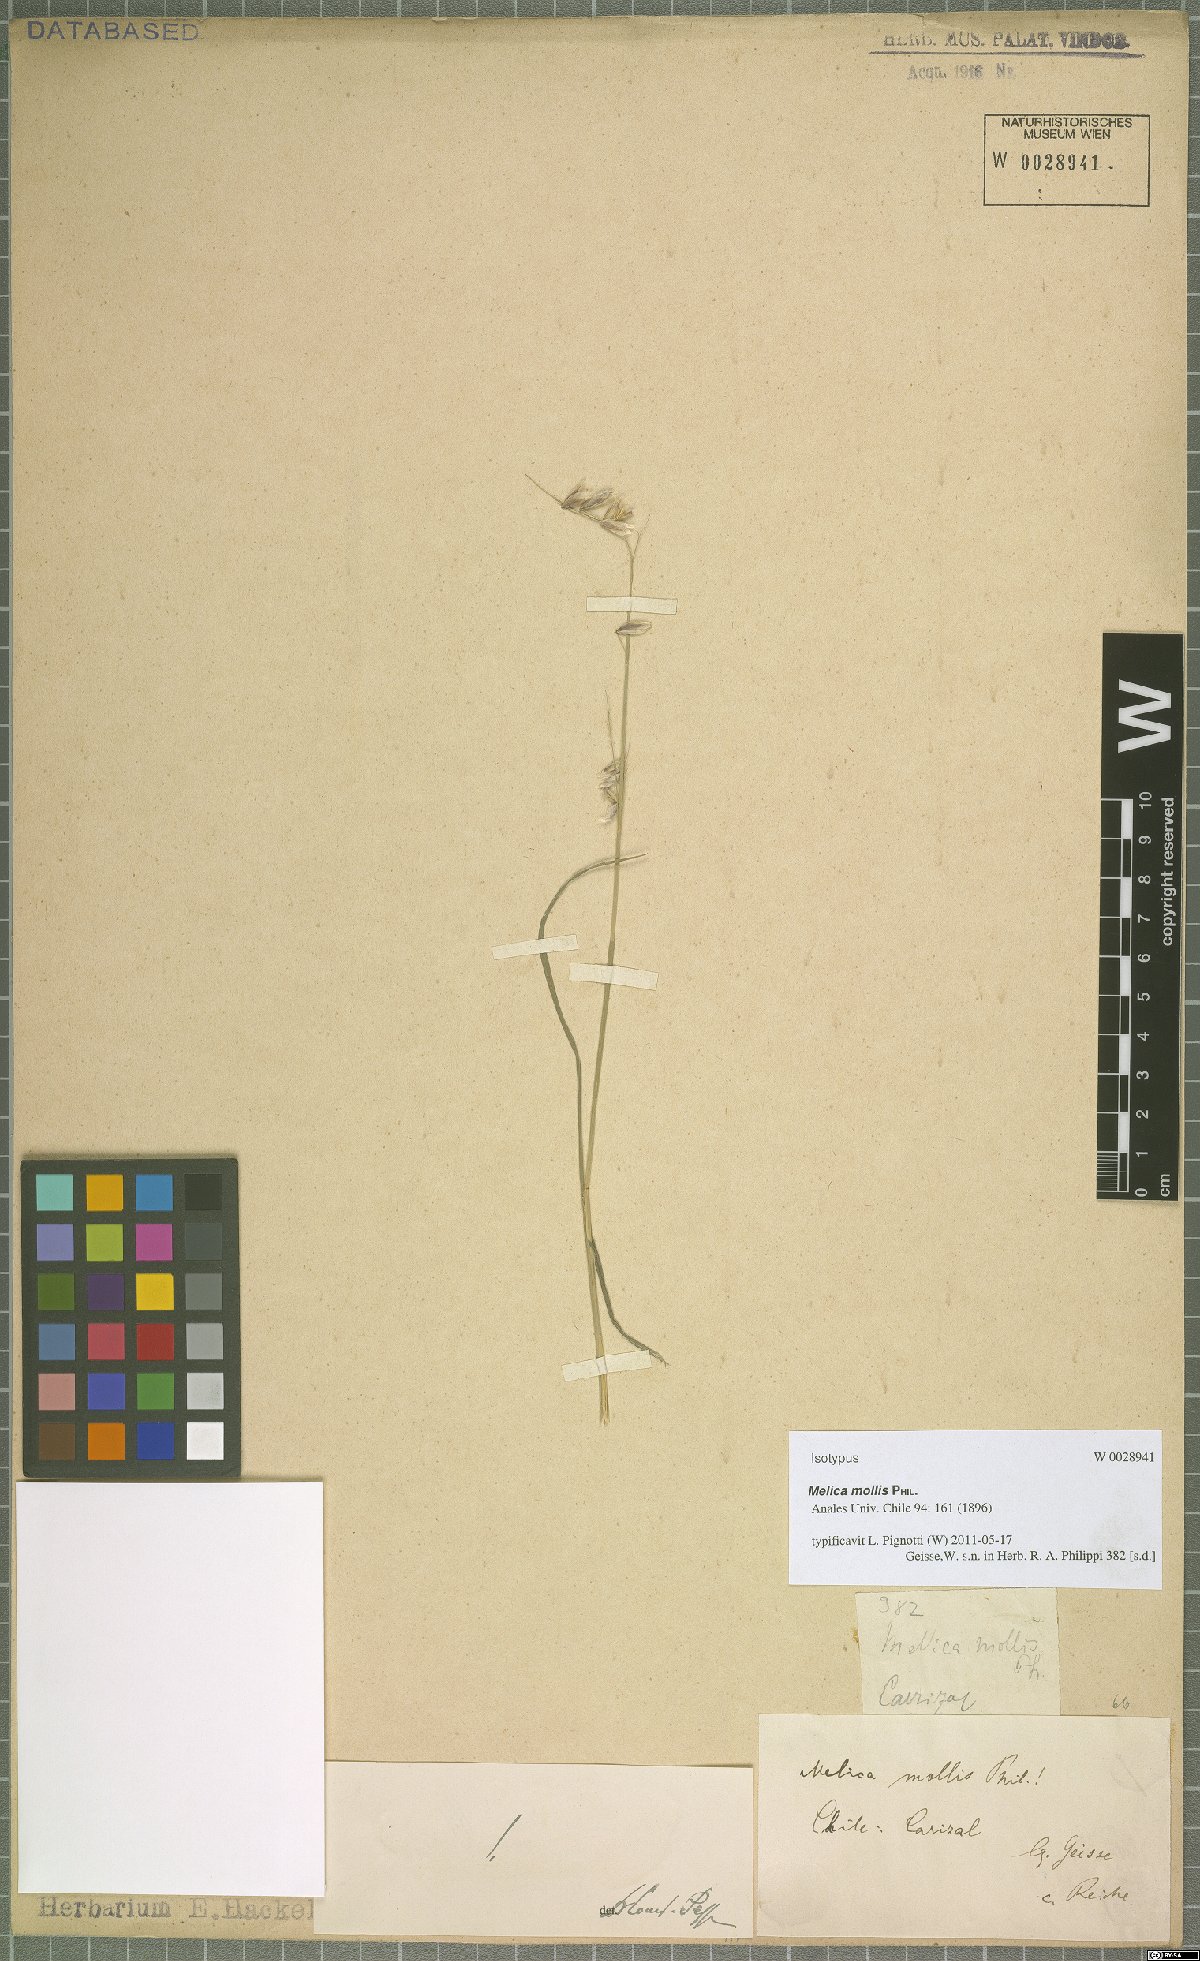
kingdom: Plantae
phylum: Tracheophyta
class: Liliopsida
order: Poales
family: Poaceae
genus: Melica
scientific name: Melica mollis
